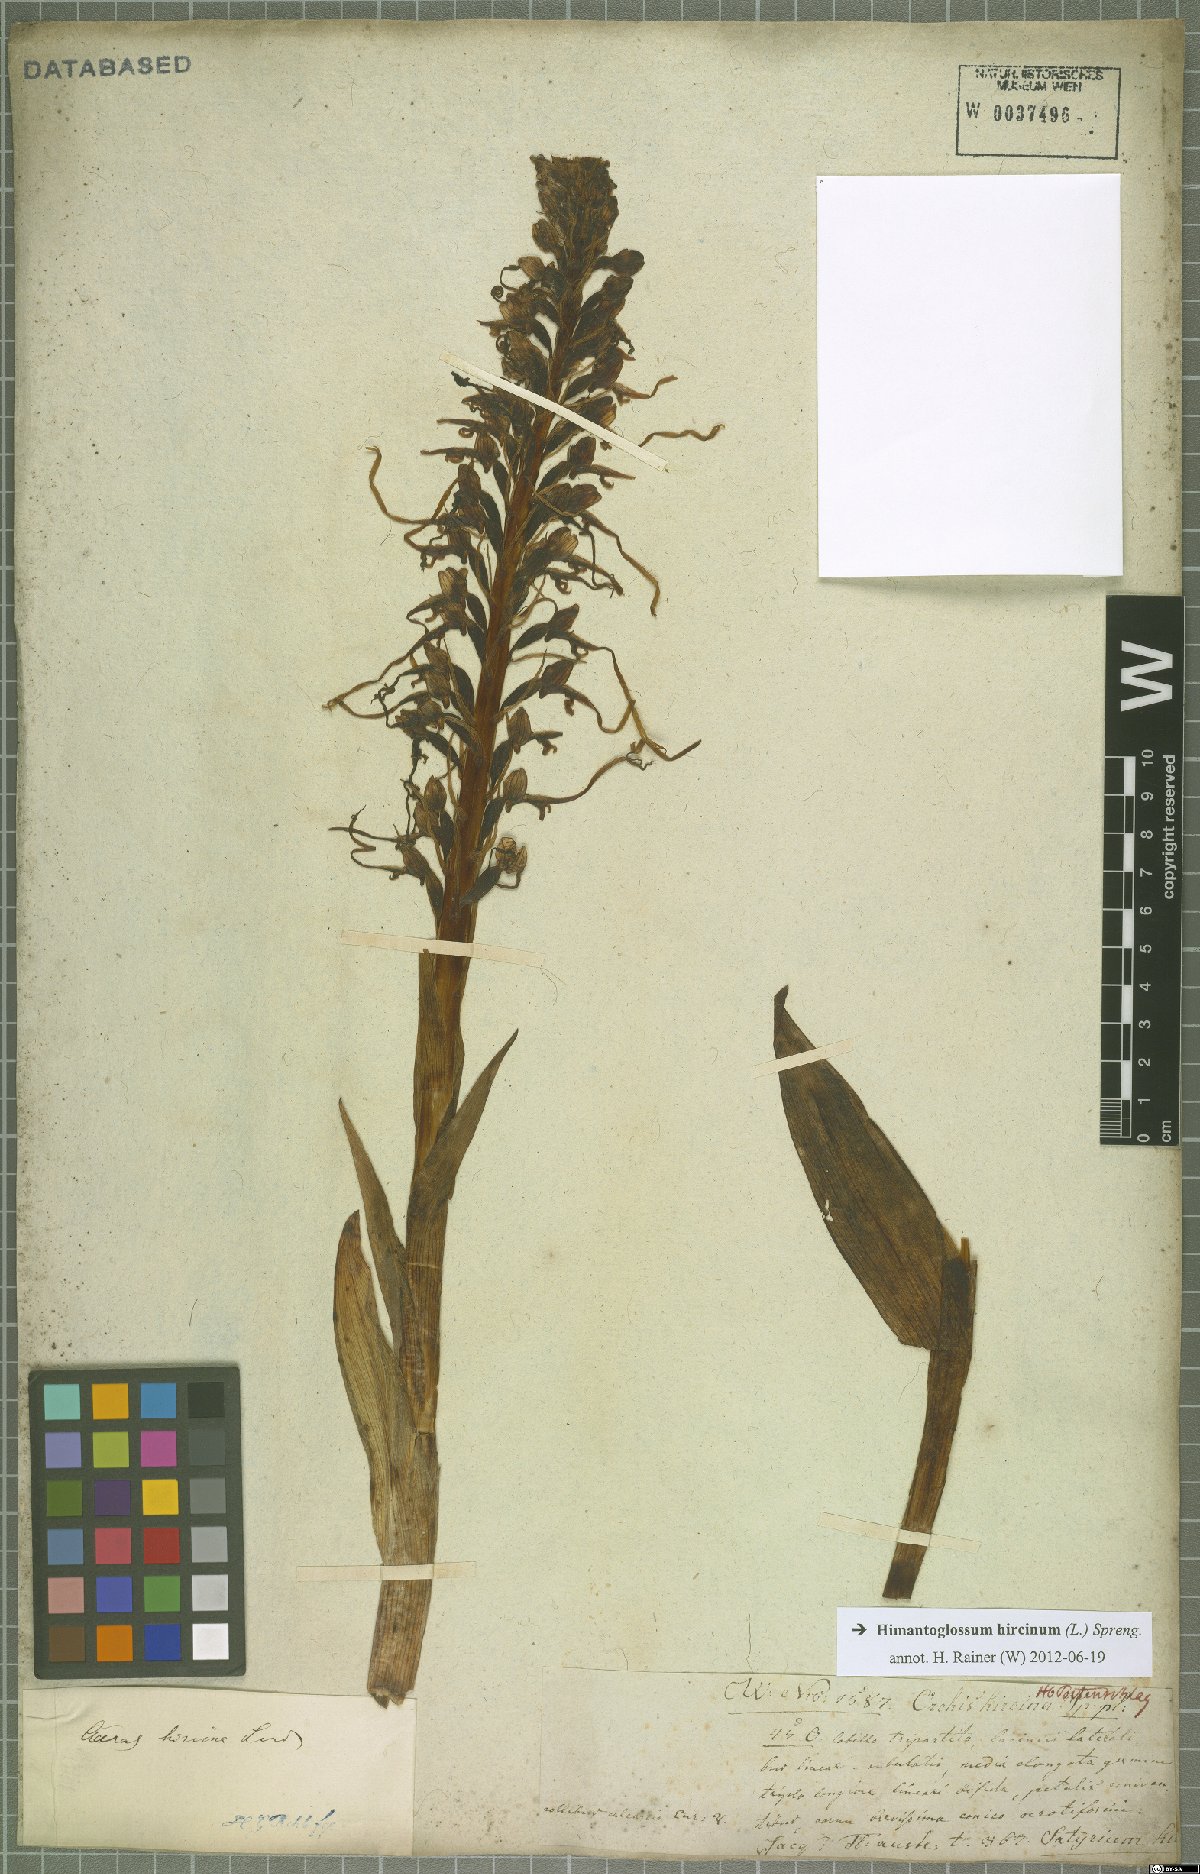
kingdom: Plantae
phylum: Tracheophyta
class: Liliopsida
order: Asparagales
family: Orchidaceae
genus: Himantoglossum
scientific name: Himantoglossum hircinum
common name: Lizard orchid
